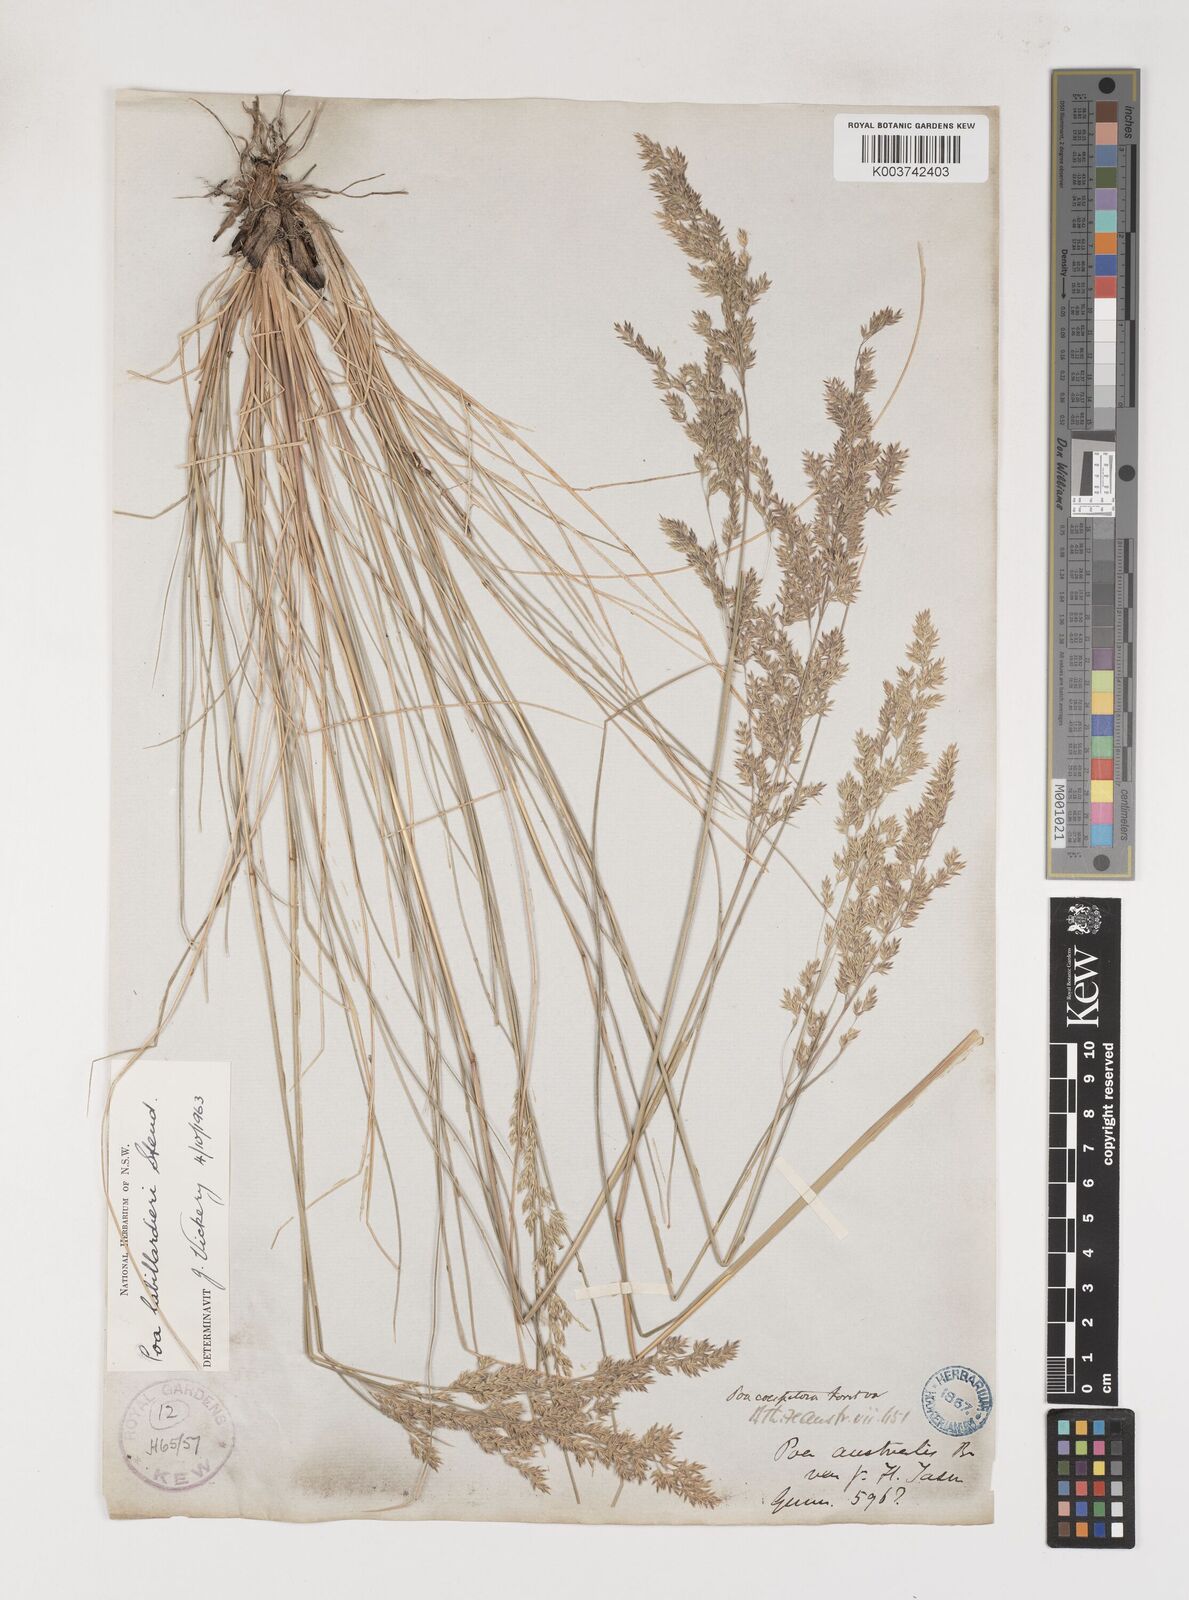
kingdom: Plantae
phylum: Tracheophyta
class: Liliopsida
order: Poales
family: Poaceae
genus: Poa
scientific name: Poa poiformis
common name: Tussock poa
